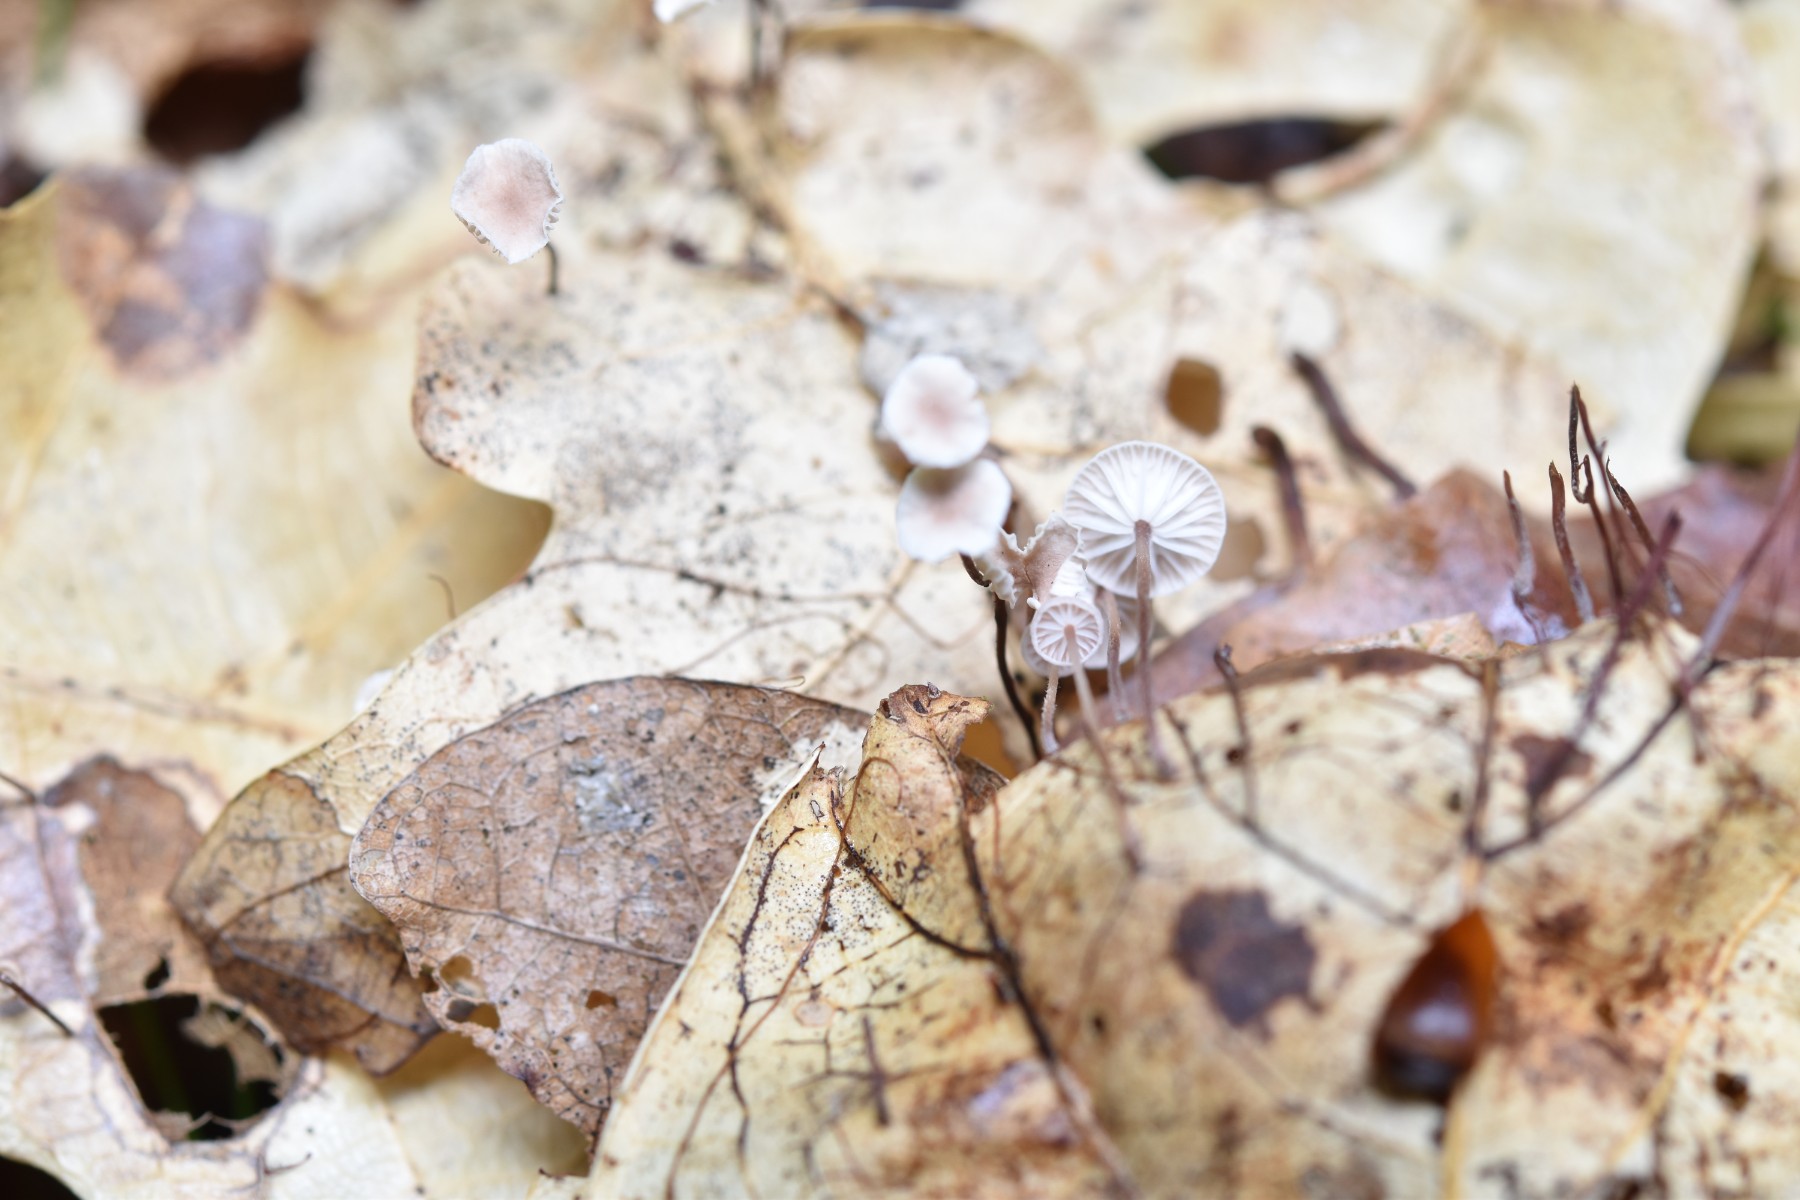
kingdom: Fungi
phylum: Basidiomycota
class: Agaricomycetes
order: Agaricales
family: Omphalotaceae
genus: Collybiopsis
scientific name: Collybiopsis quercophila
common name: egeblads-bruskhat
